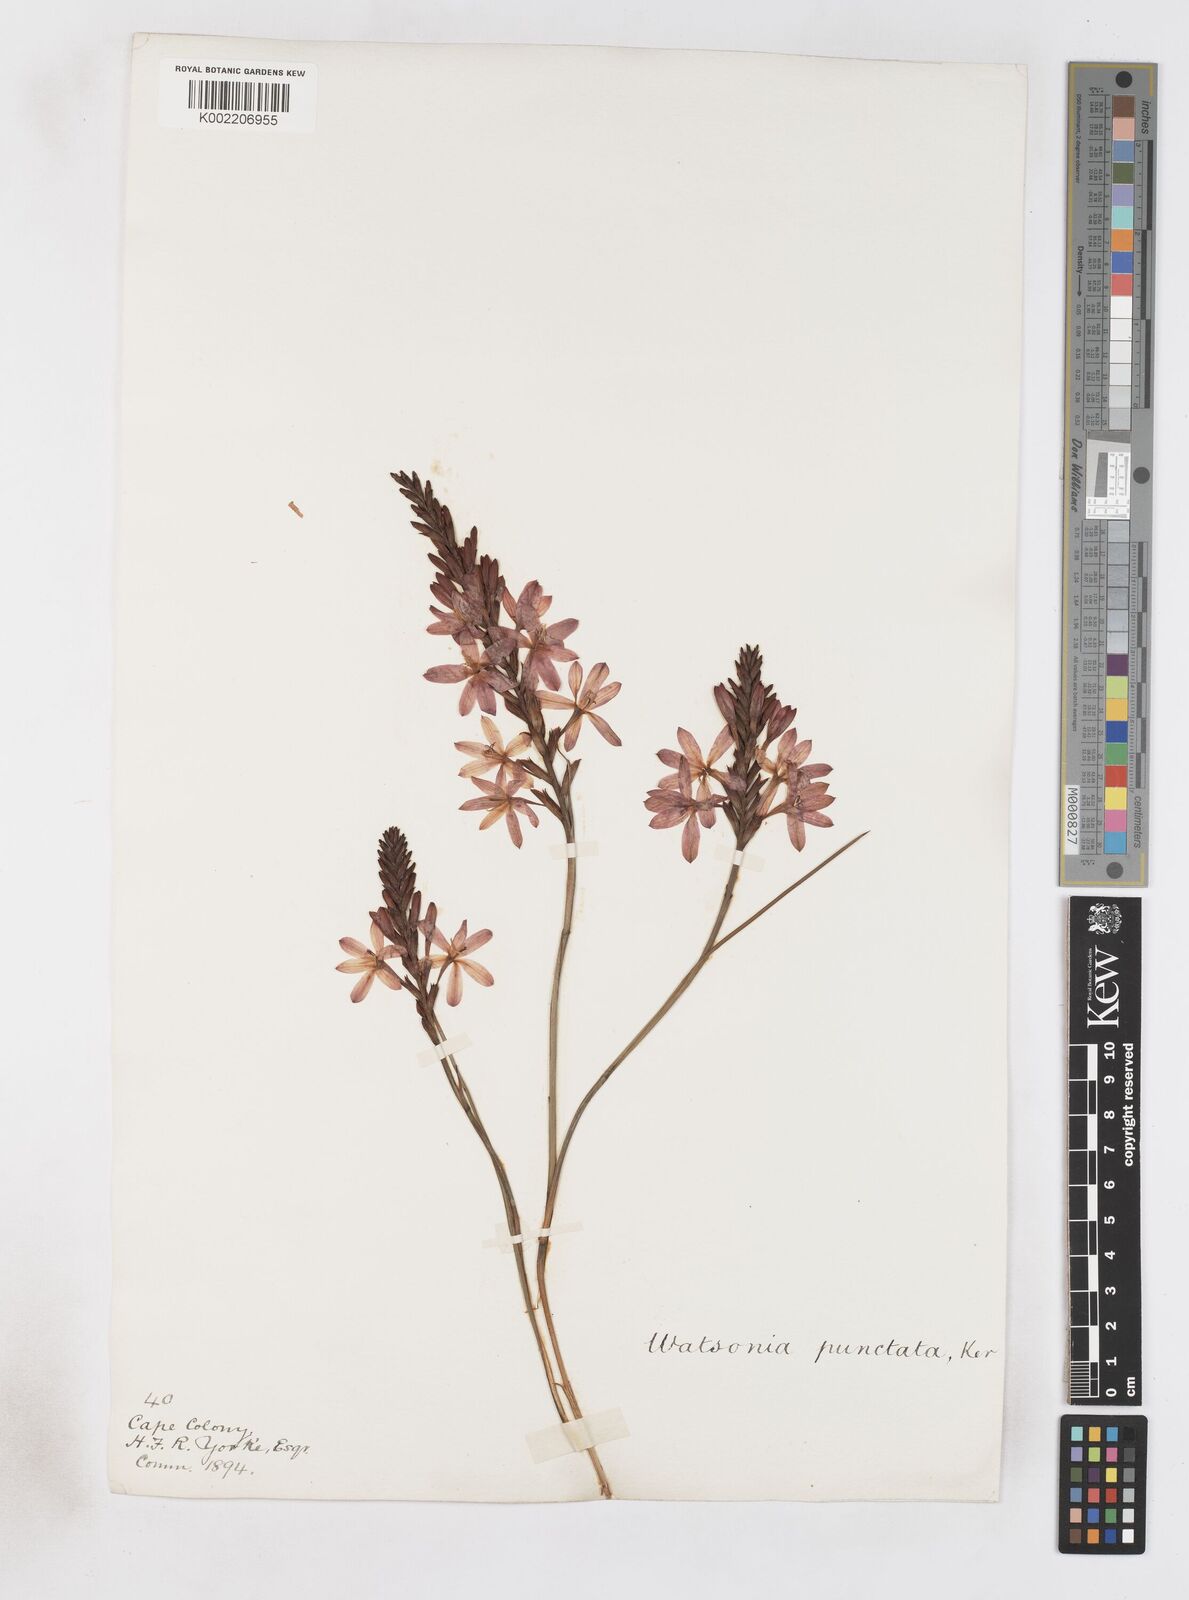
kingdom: Plantae
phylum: Tracheophyta
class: Liliopsida
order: Asparagales
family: Iridaceae
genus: Thereianthus
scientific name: Thereianthus spicatus
